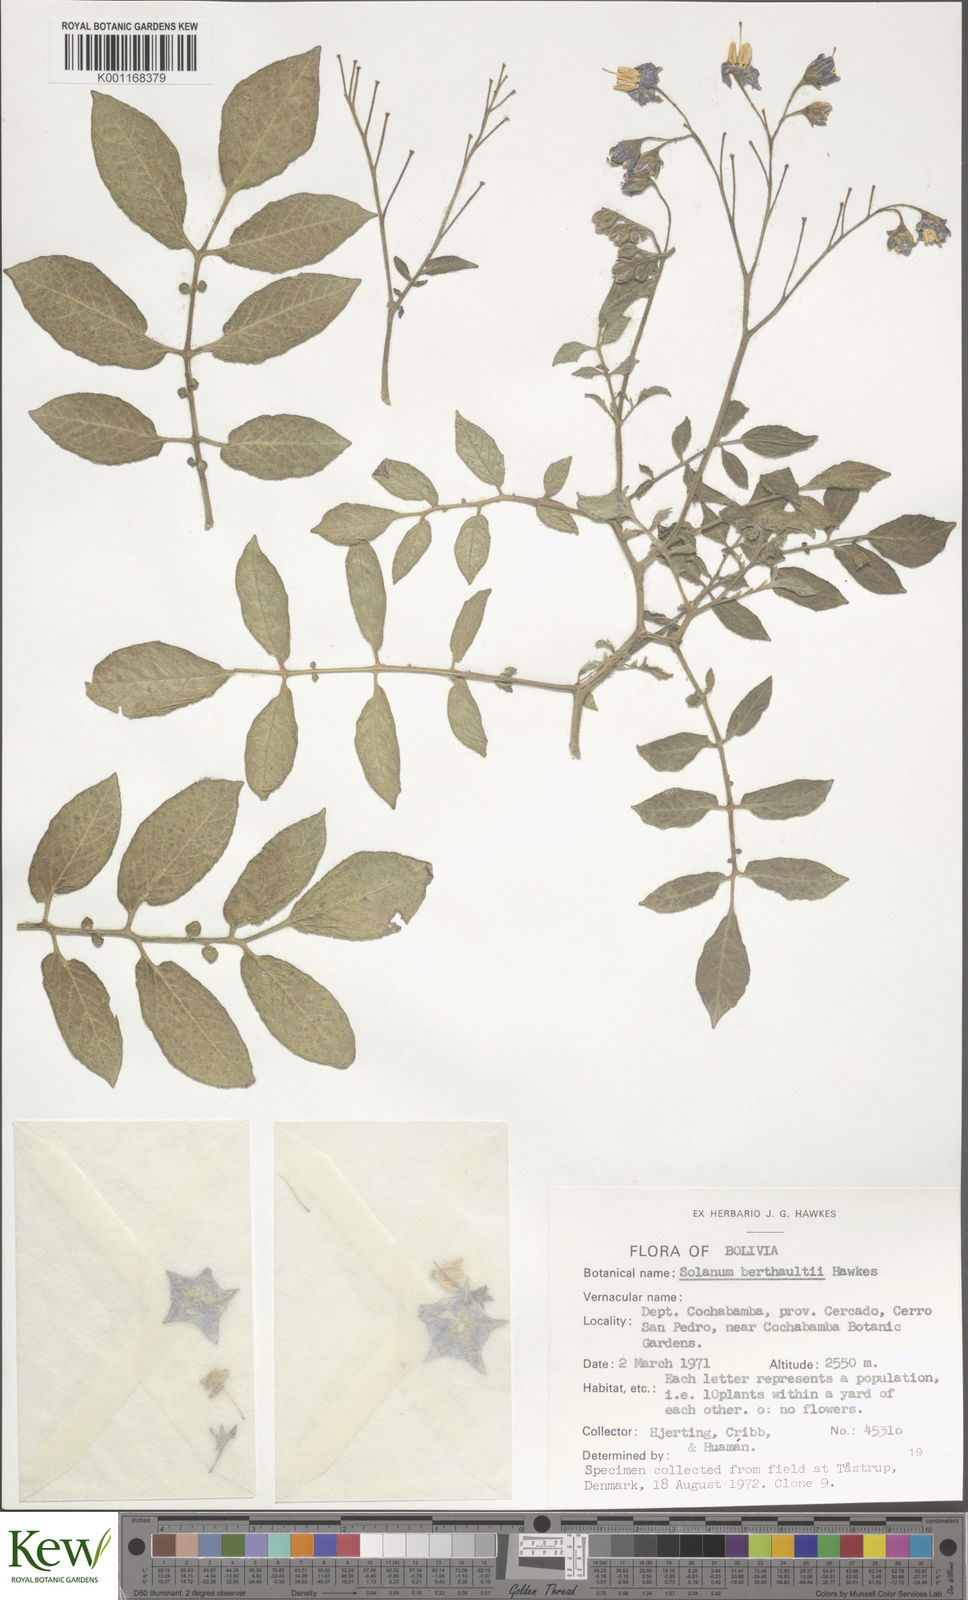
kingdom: Plantae
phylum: Tracheophyta
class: Magnoliopsida
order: Solanales
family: Solanaceae
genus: Solanum
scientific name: Solanum berthaultii
